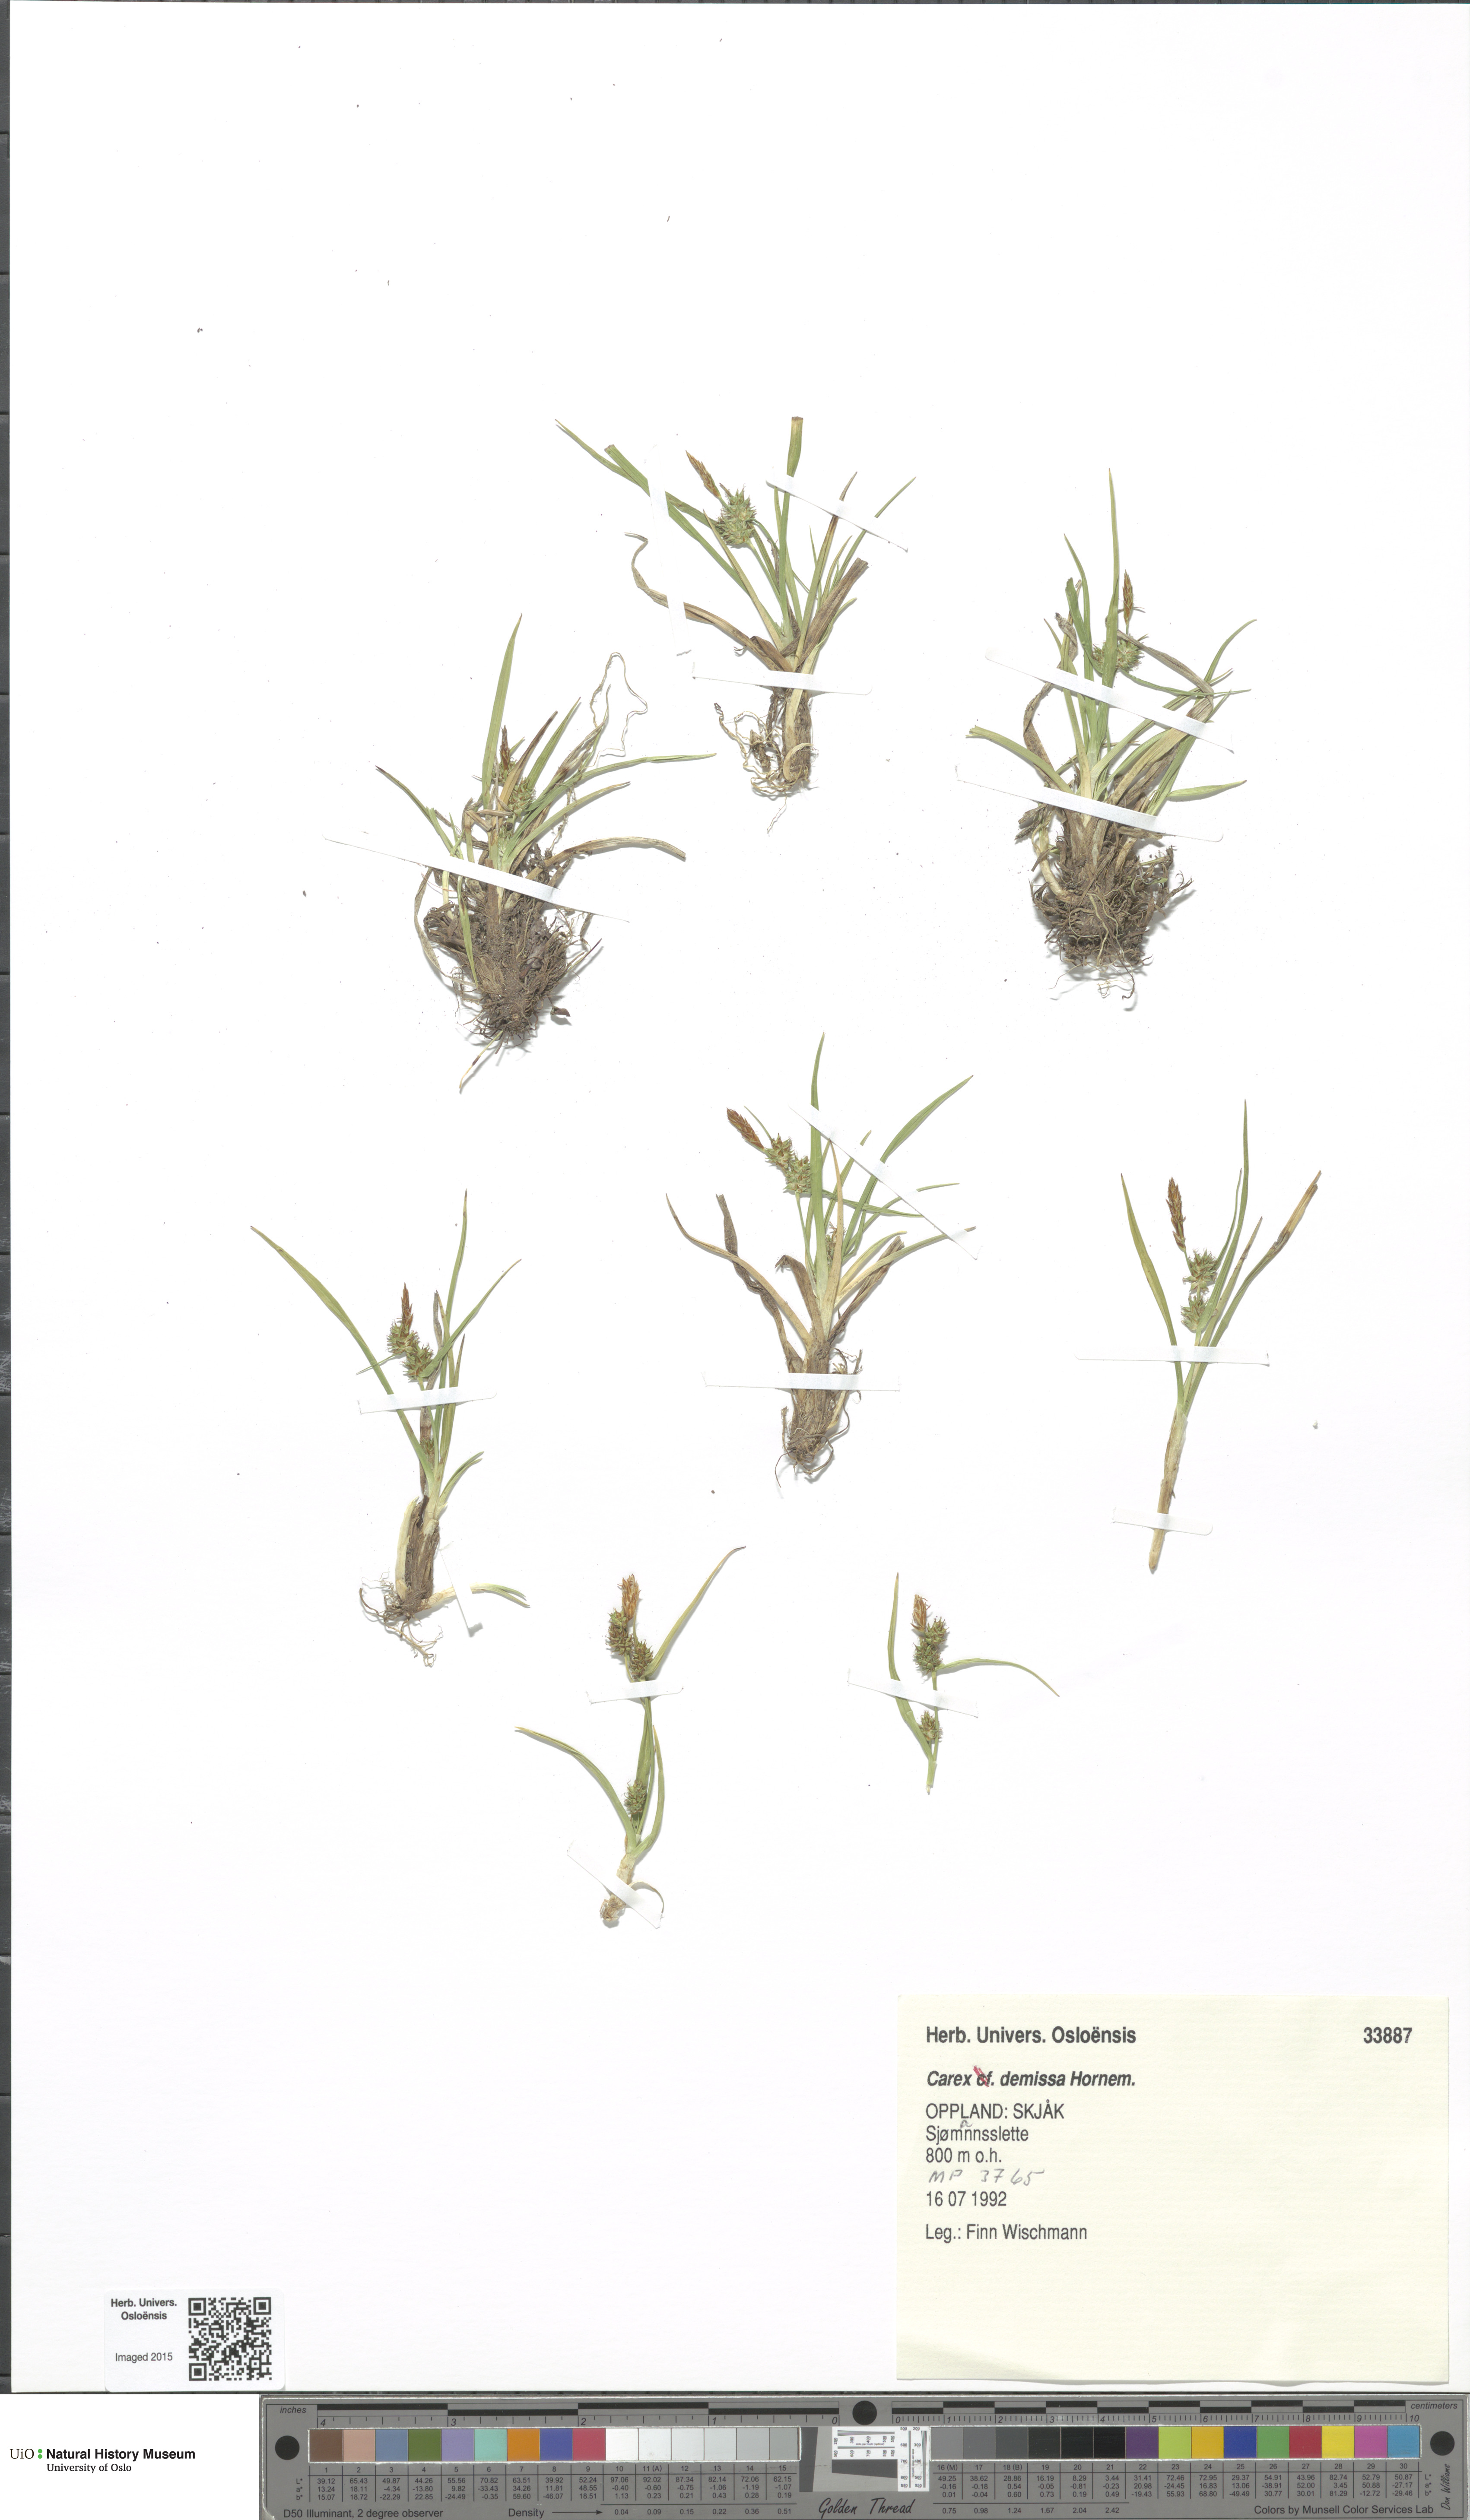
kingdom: Plantae
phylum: Tracheophyta
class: Liliopsida
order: Poales
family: Cyperaceae
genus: Carex
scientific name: Carex demissa
